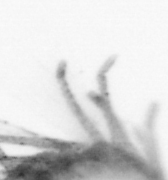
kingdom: Animalia
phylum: Annelida
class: Polychaeta
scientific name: Polychaeta
